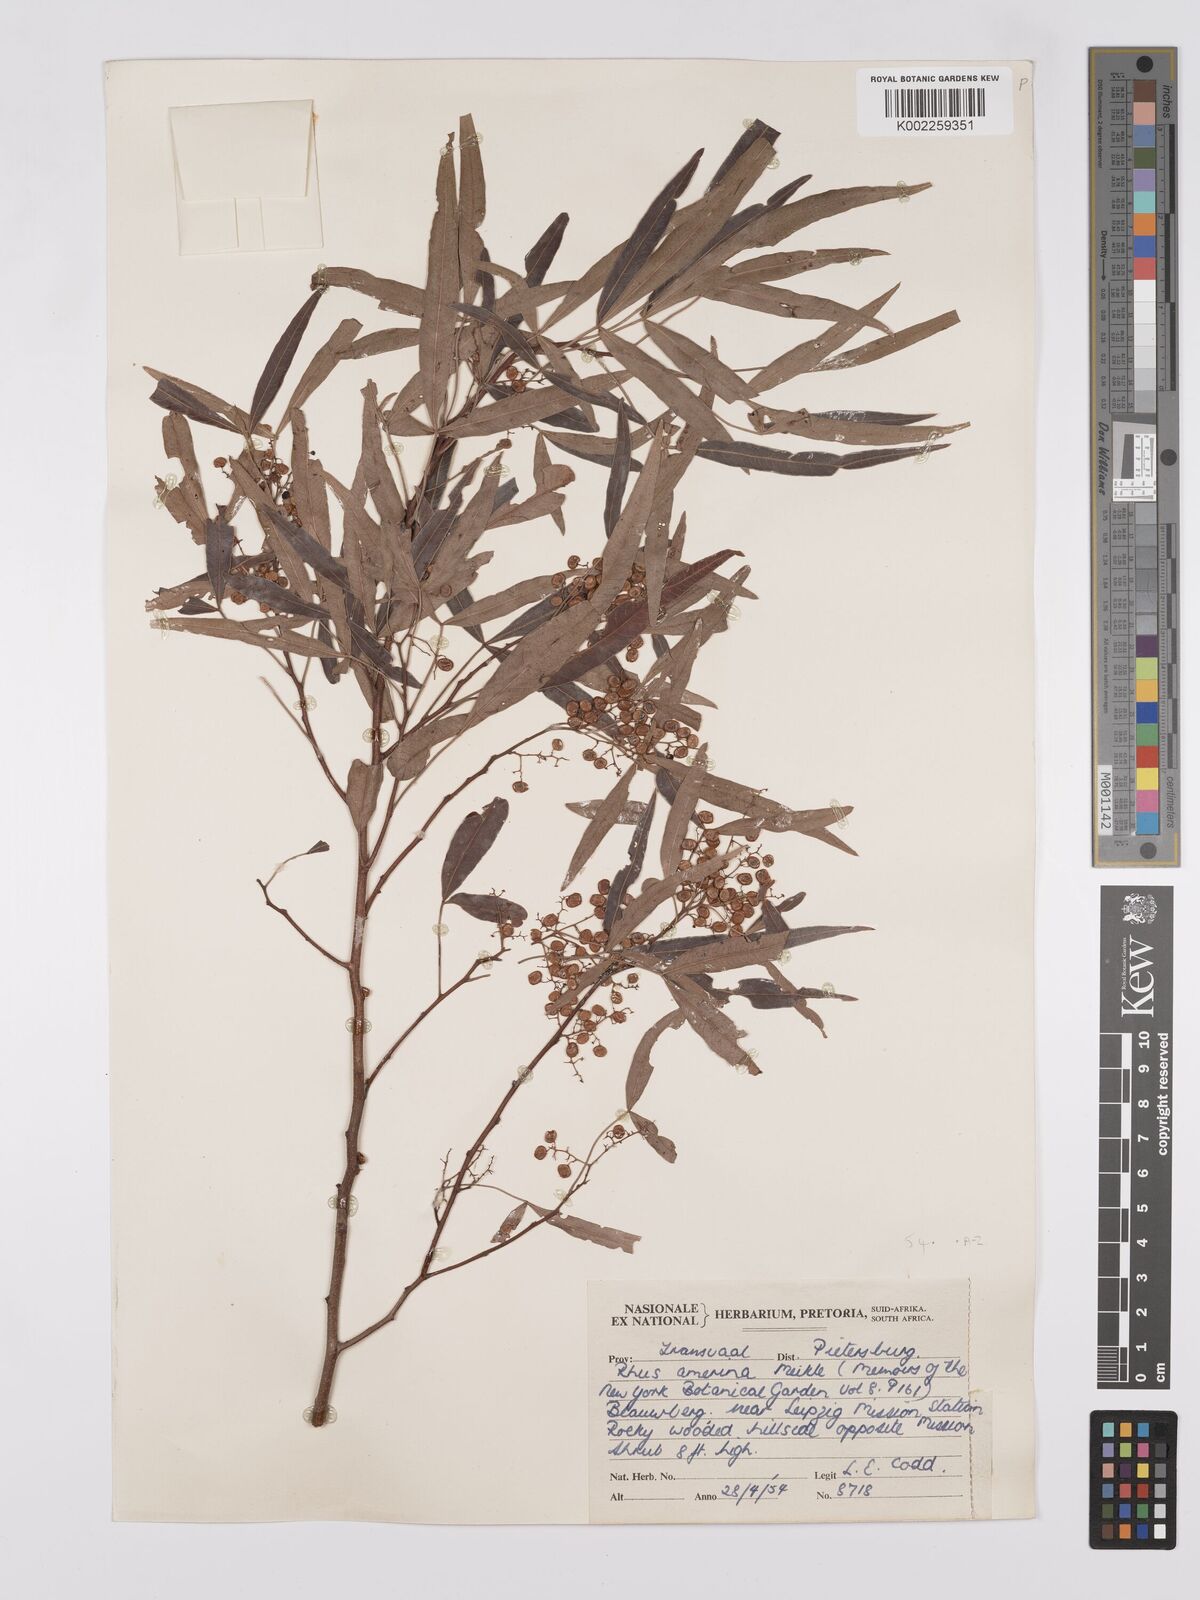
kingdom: Plantae
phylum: Tracheophyta
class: Magnoliopsida
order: Sapindales
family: Anacardiaceae
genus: Searsia
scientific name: Searsia leptodictya
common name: Mountain karee
